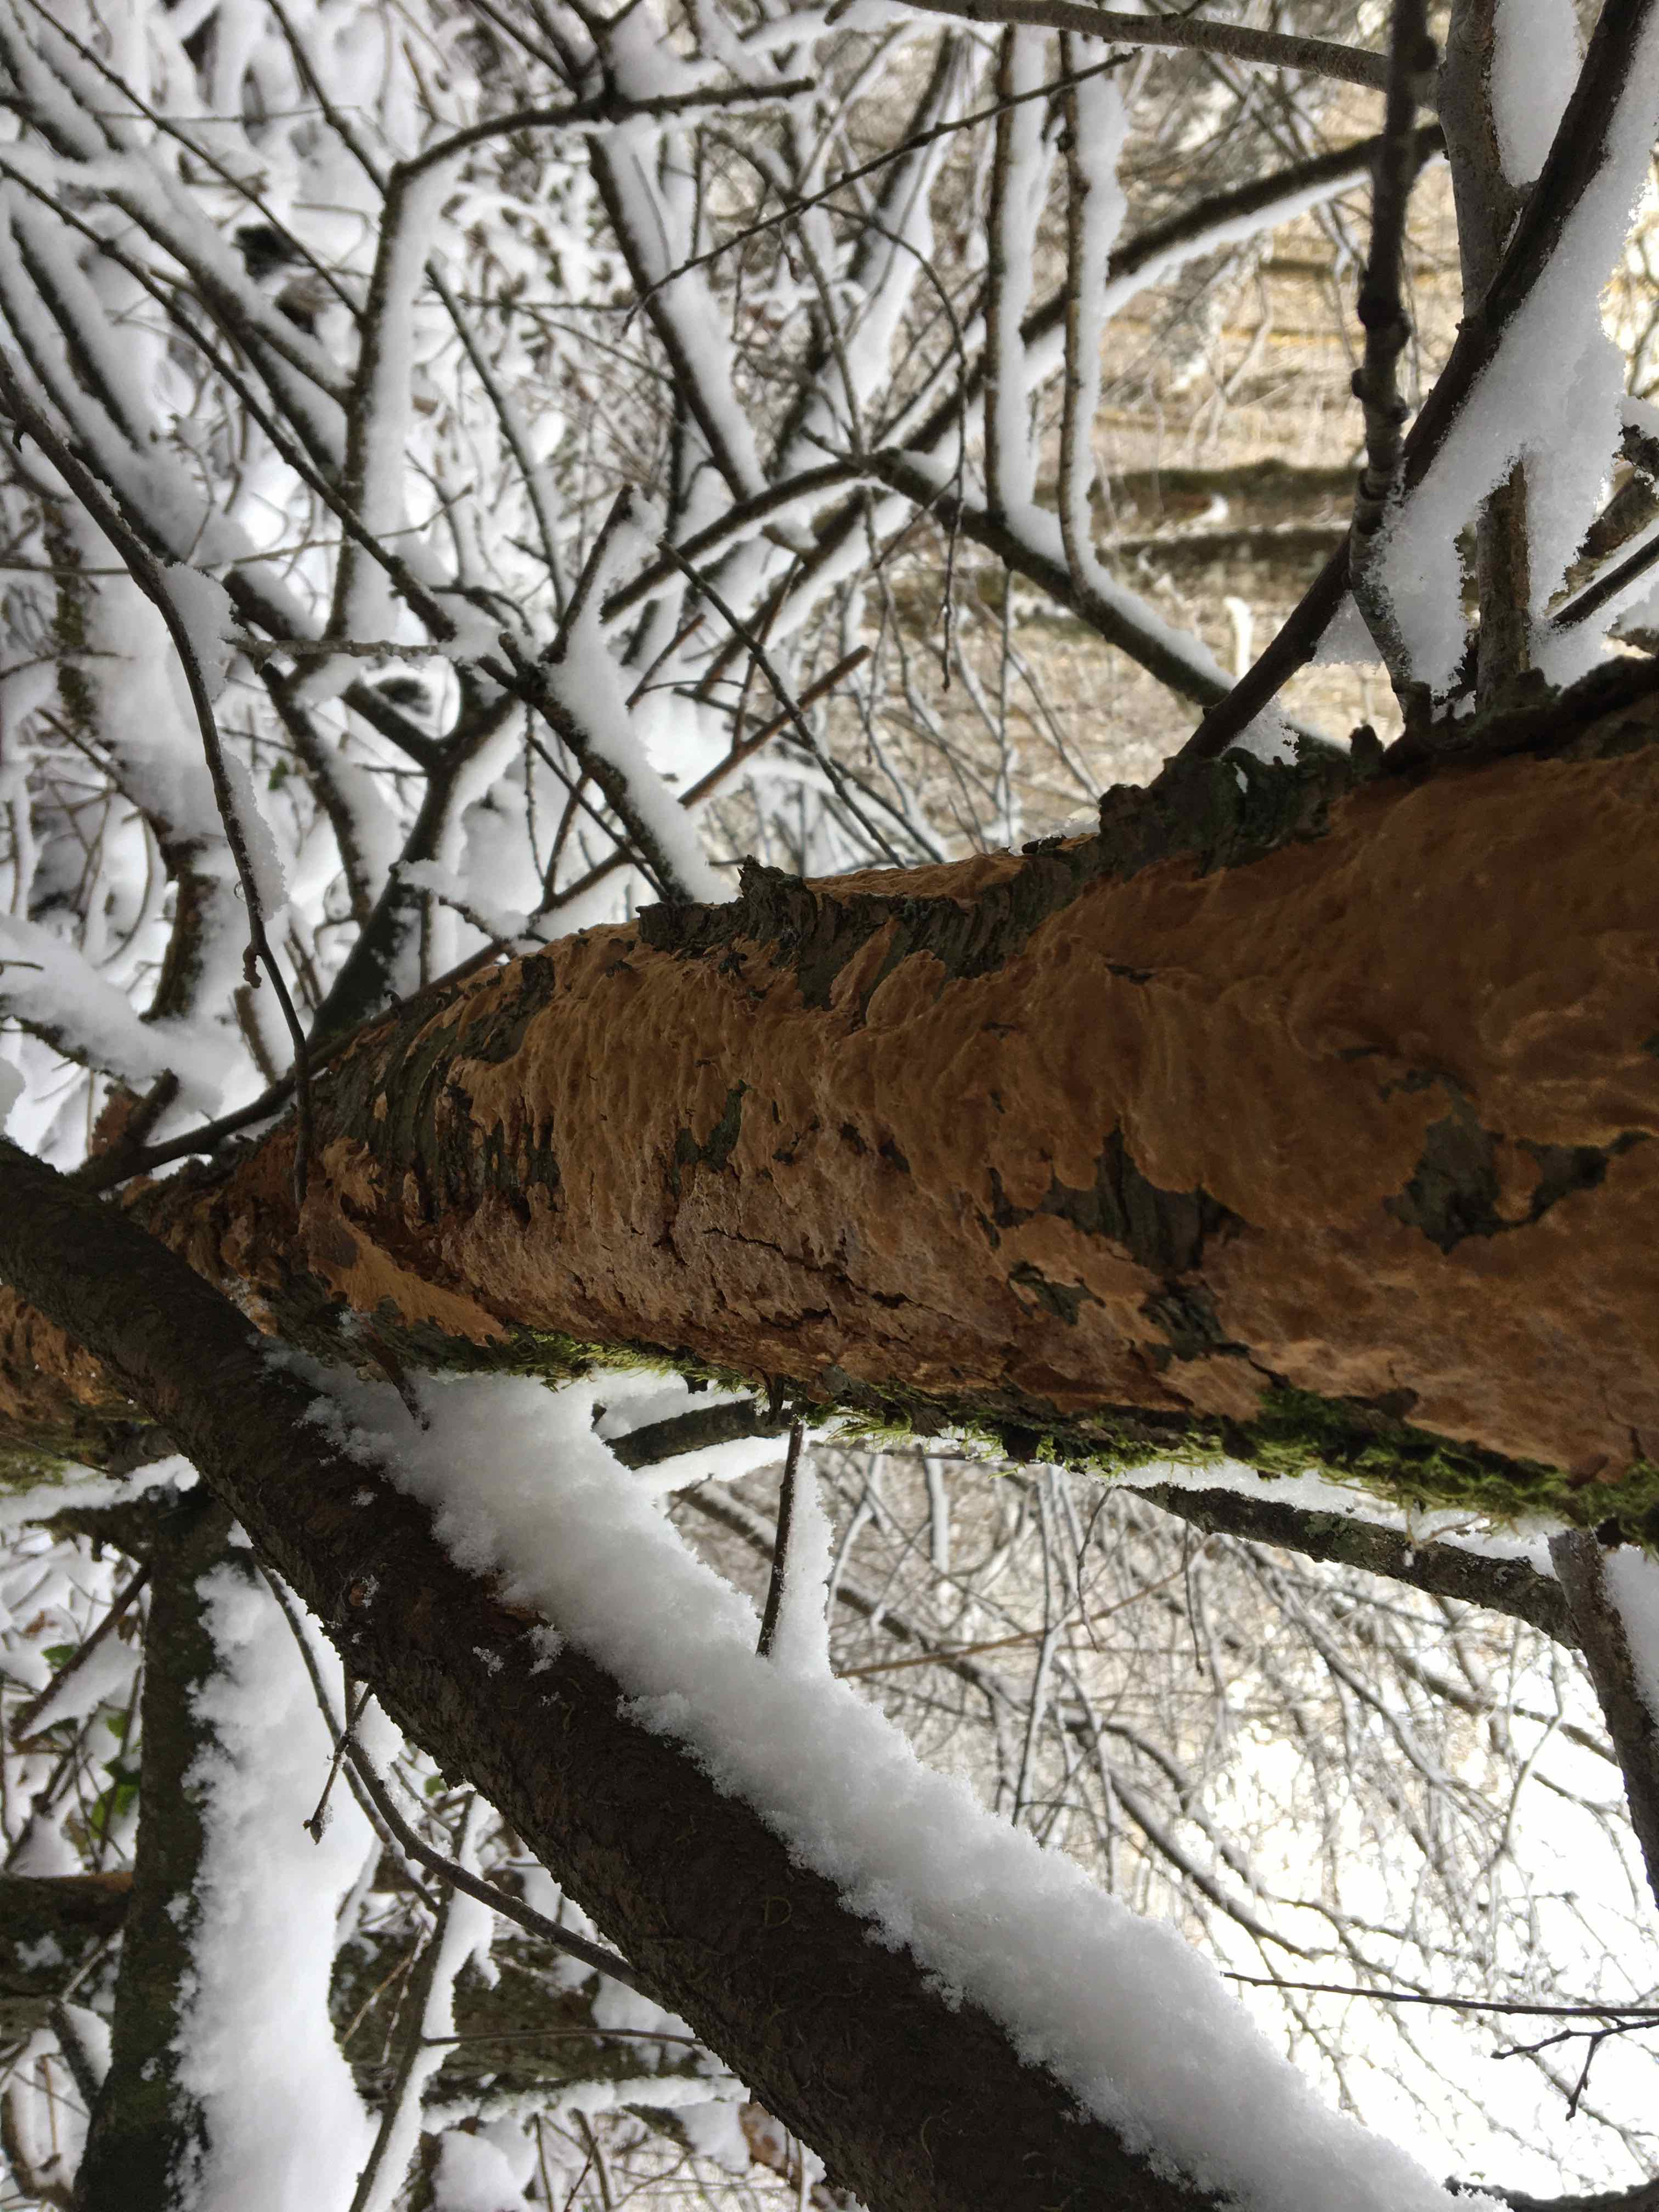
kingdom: Fungi
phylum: Basidiomycota
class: Agaricomycetes
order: Hymenochaetales
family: Hymenochaetaceae
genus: Fuscoporia
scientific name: Fuscoporia ferrea
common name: skorpe-ildporesvamp
